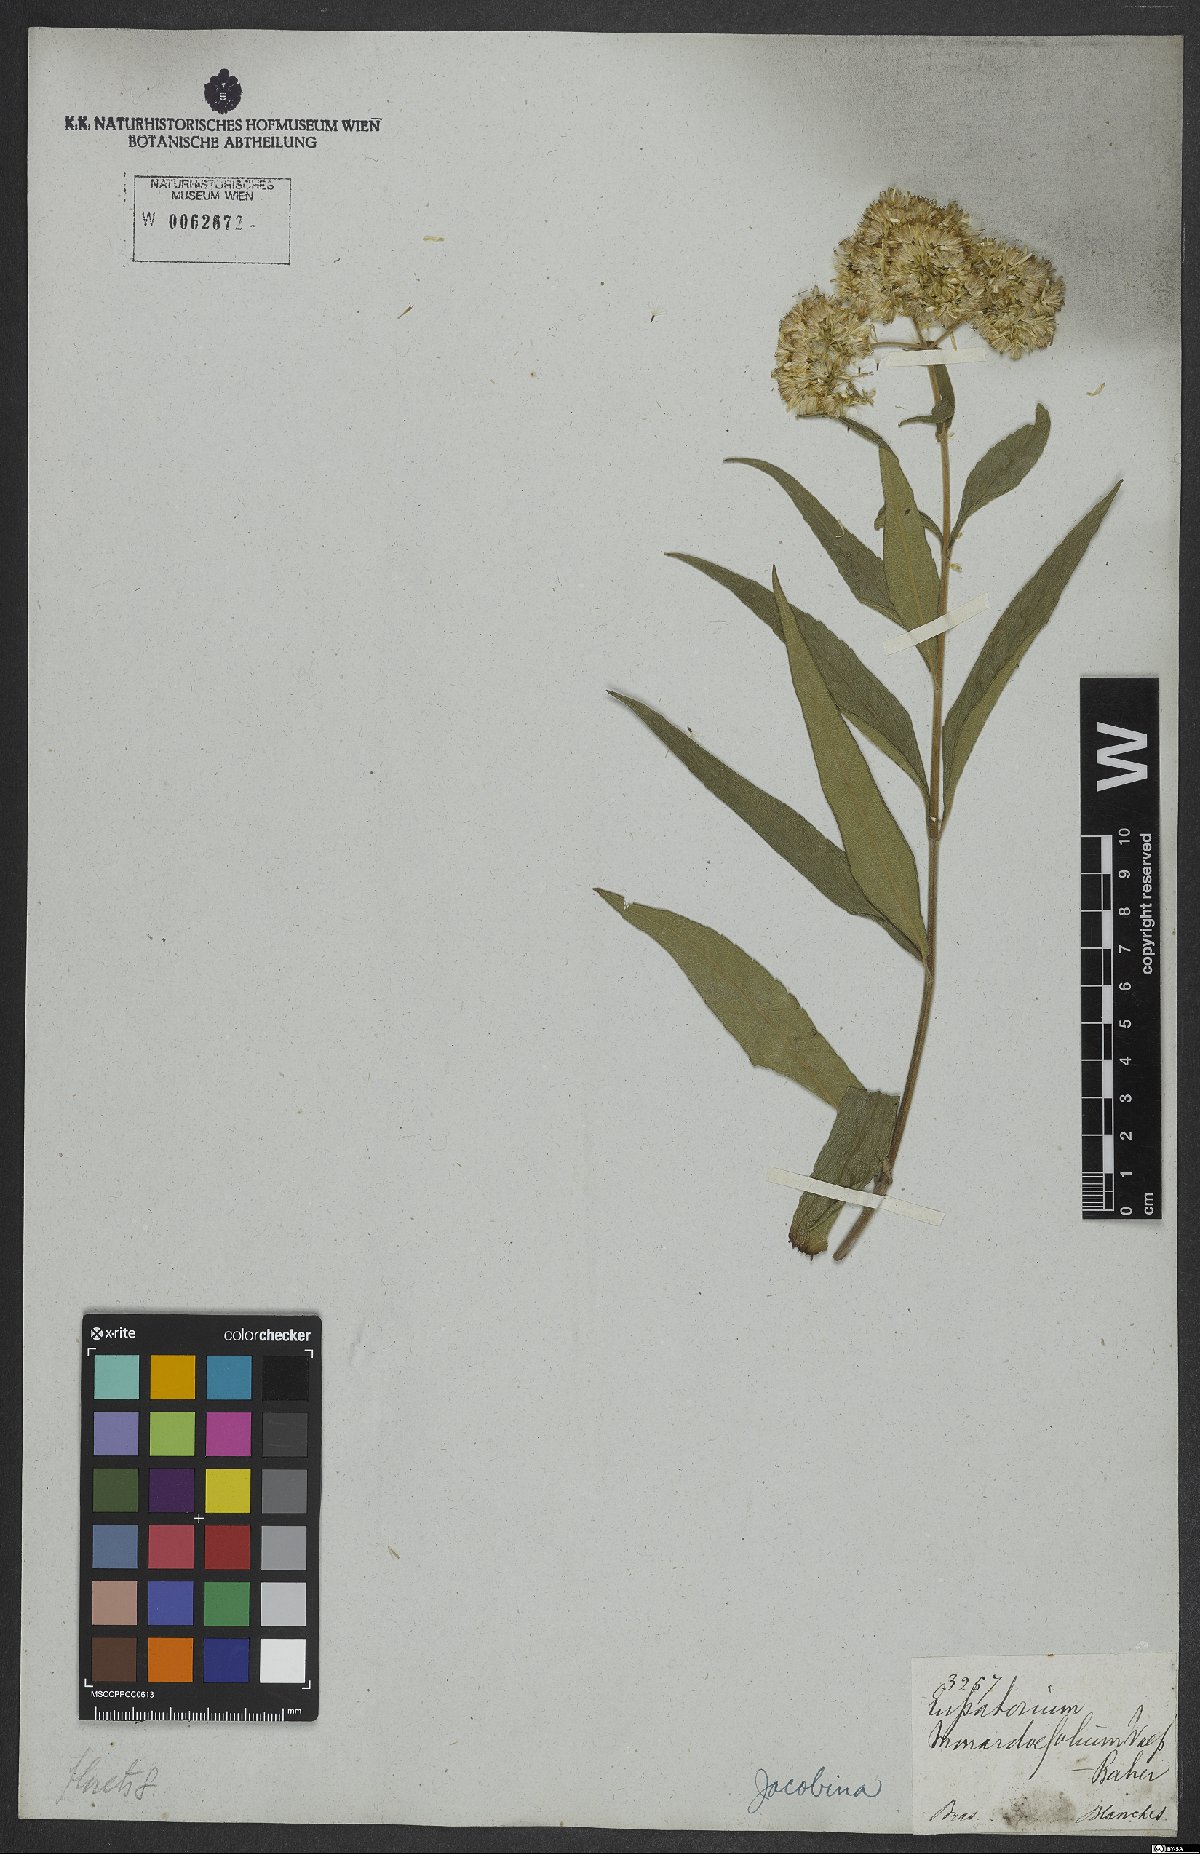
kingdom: Plantae
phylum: Tracheophyta
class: Magnoliopsida
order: Asterales
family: Asteraceae
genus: Austroeupatorium
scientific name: Austroeupatorium silphiifolium
